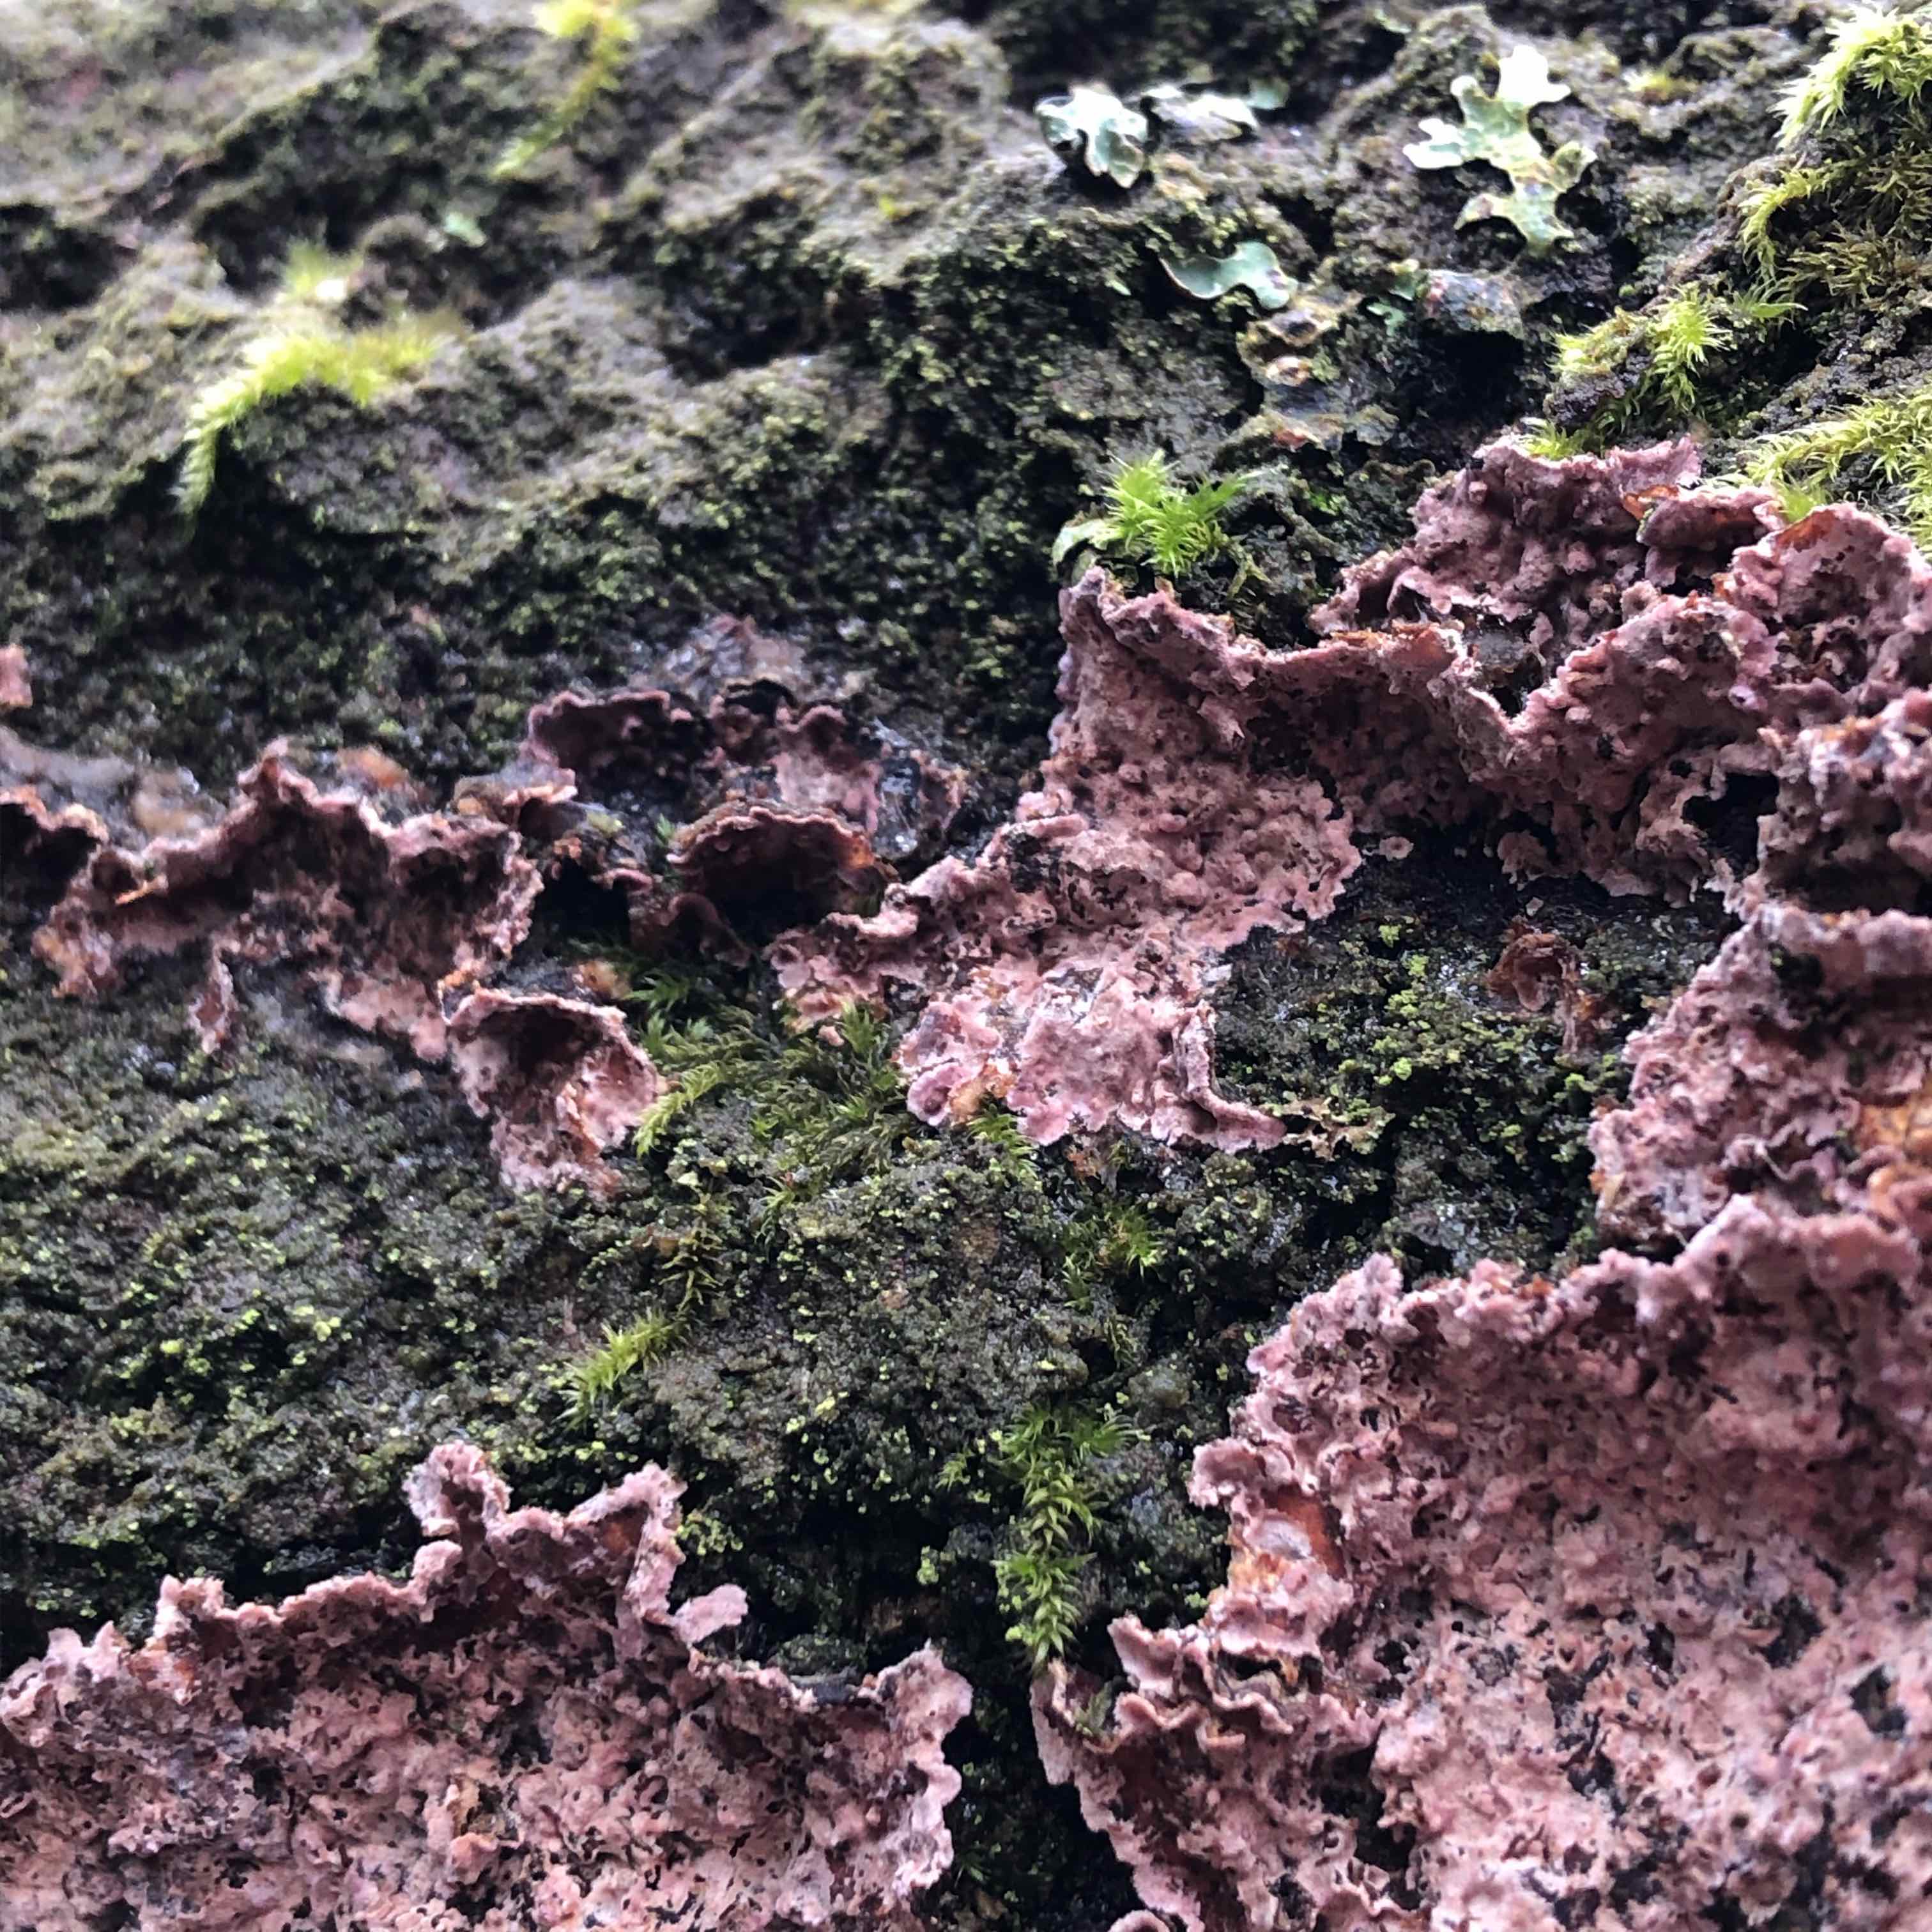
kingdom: Fungi
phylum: Basidiomycota
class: Agaricomycetes
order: Agaricales
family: Cyphellaceae
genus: Chondrostereum
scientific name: Chondrostereum purpureum
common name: purpurlædersvamp
